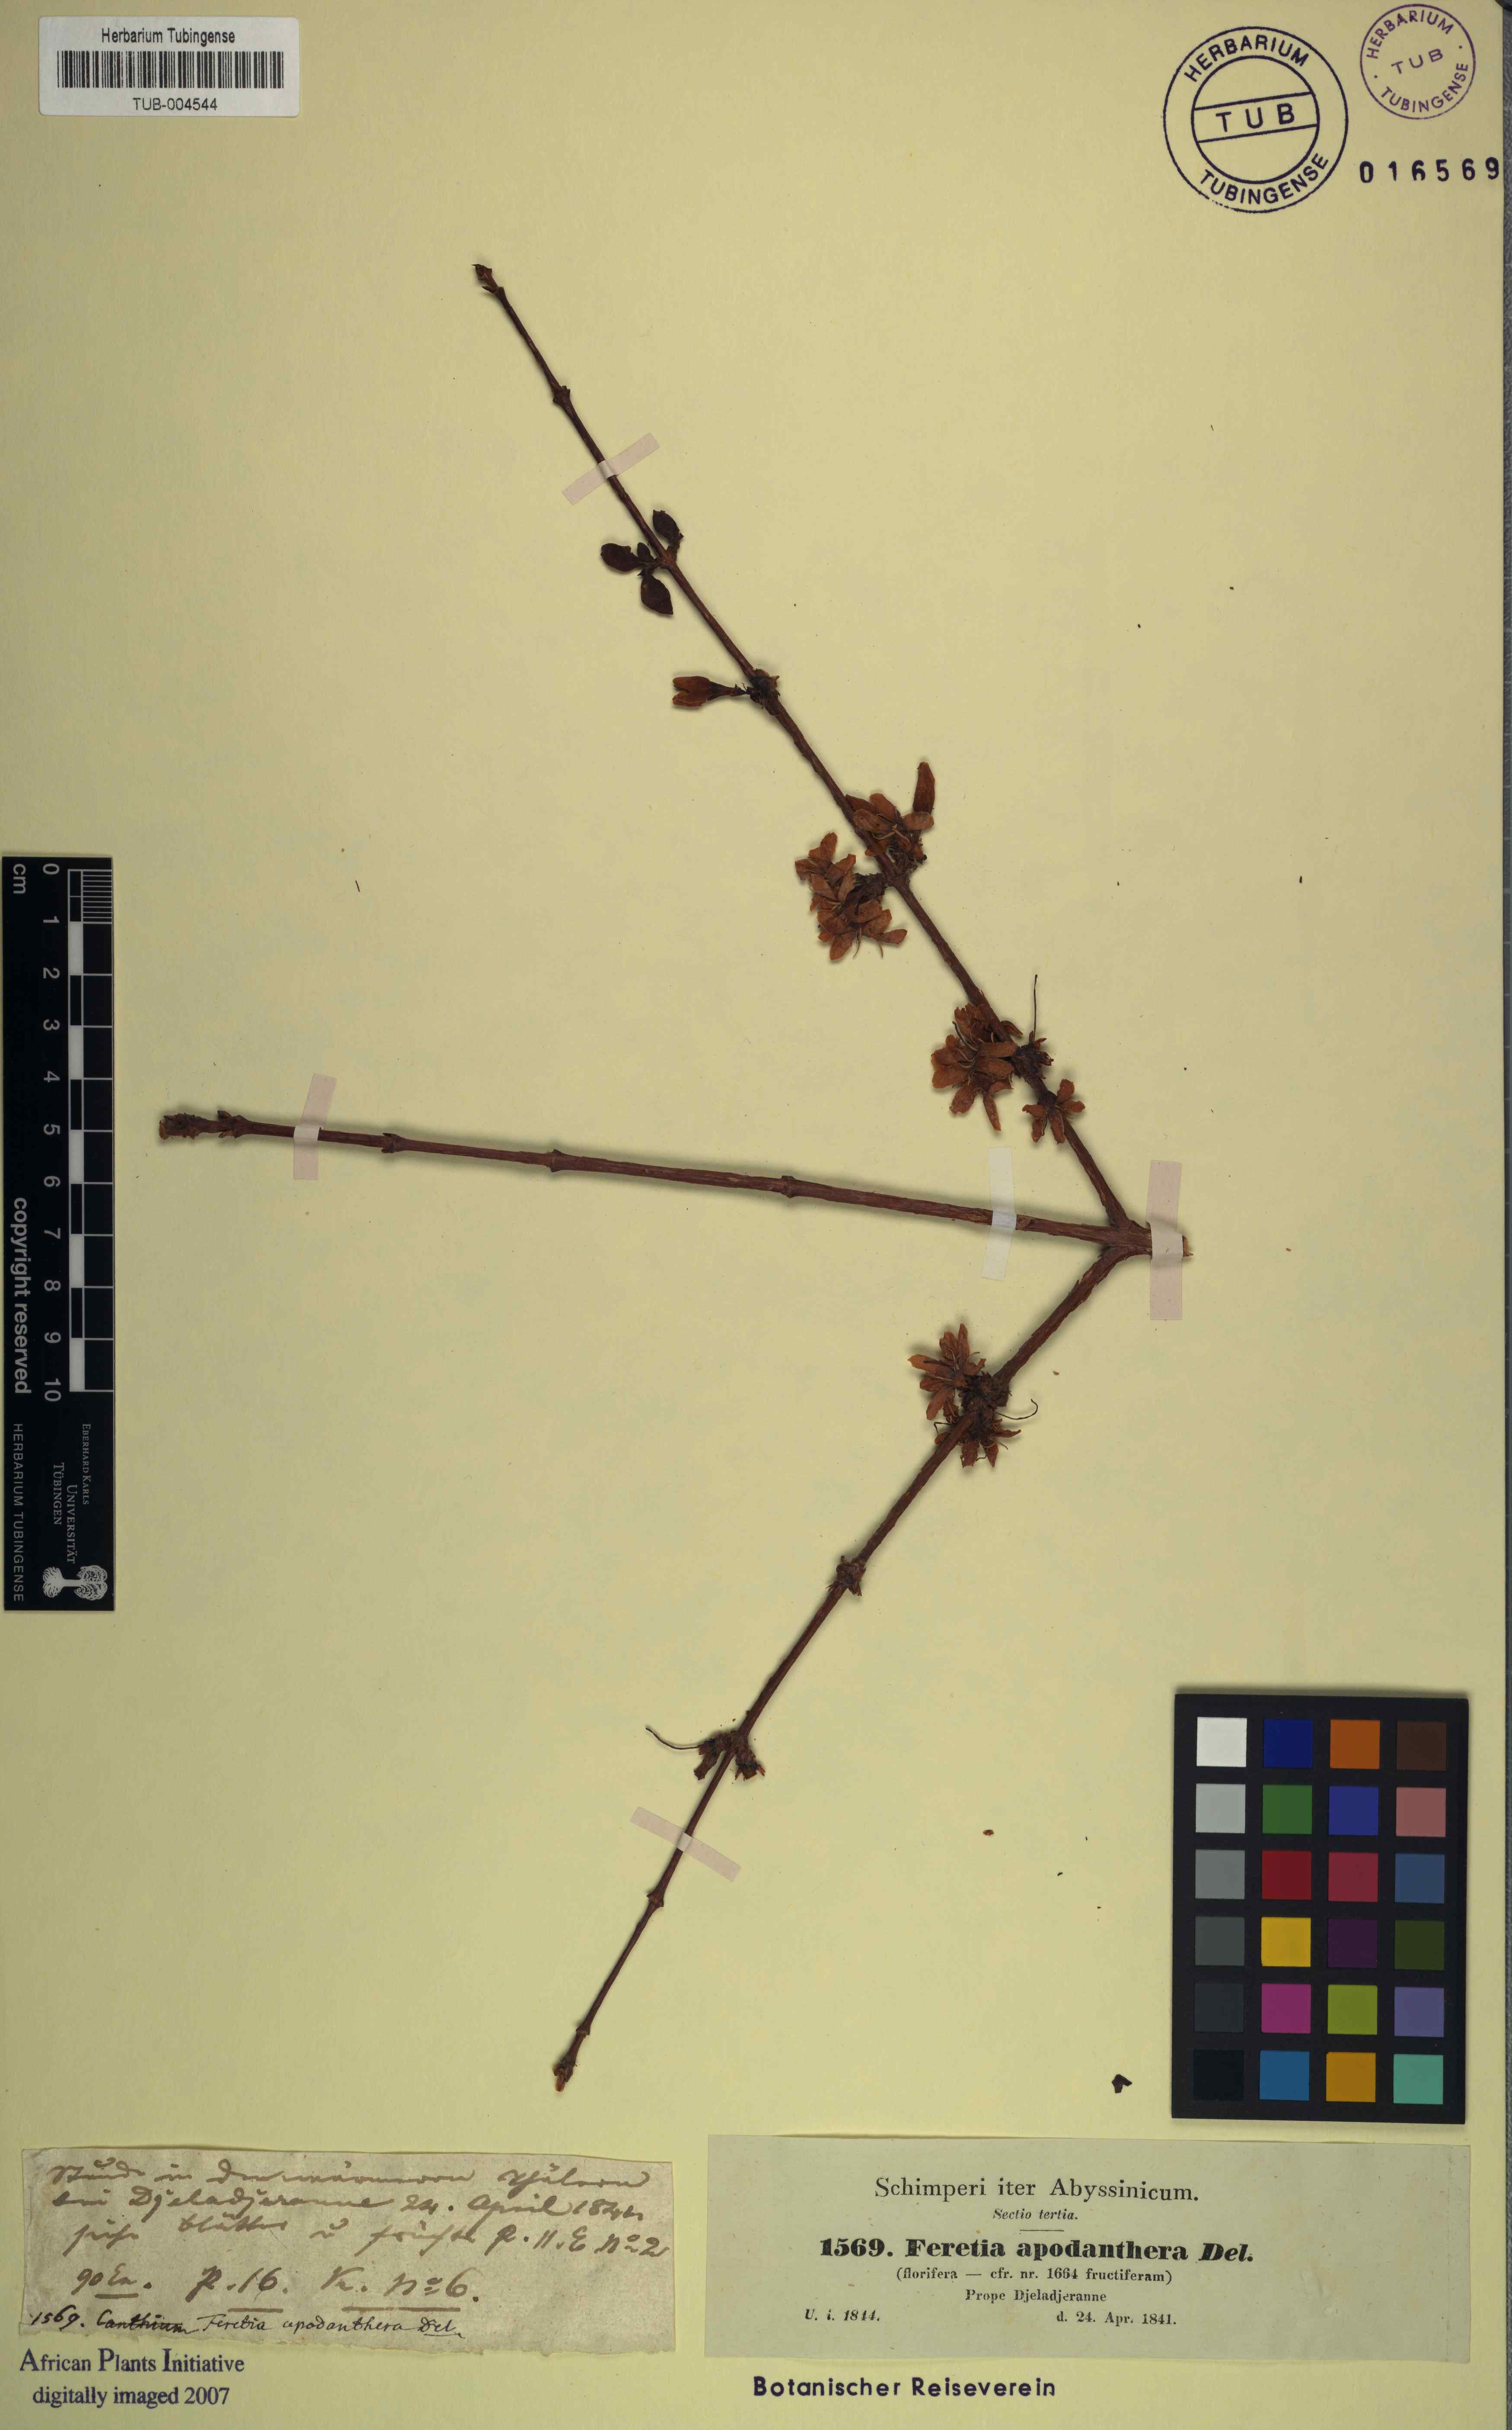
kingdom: Plantae
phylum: Tracheophyta
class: Magnoliopsida
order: Gentianales
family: Rubiaceae
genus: Feretia
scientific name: Feretia apodanthera
